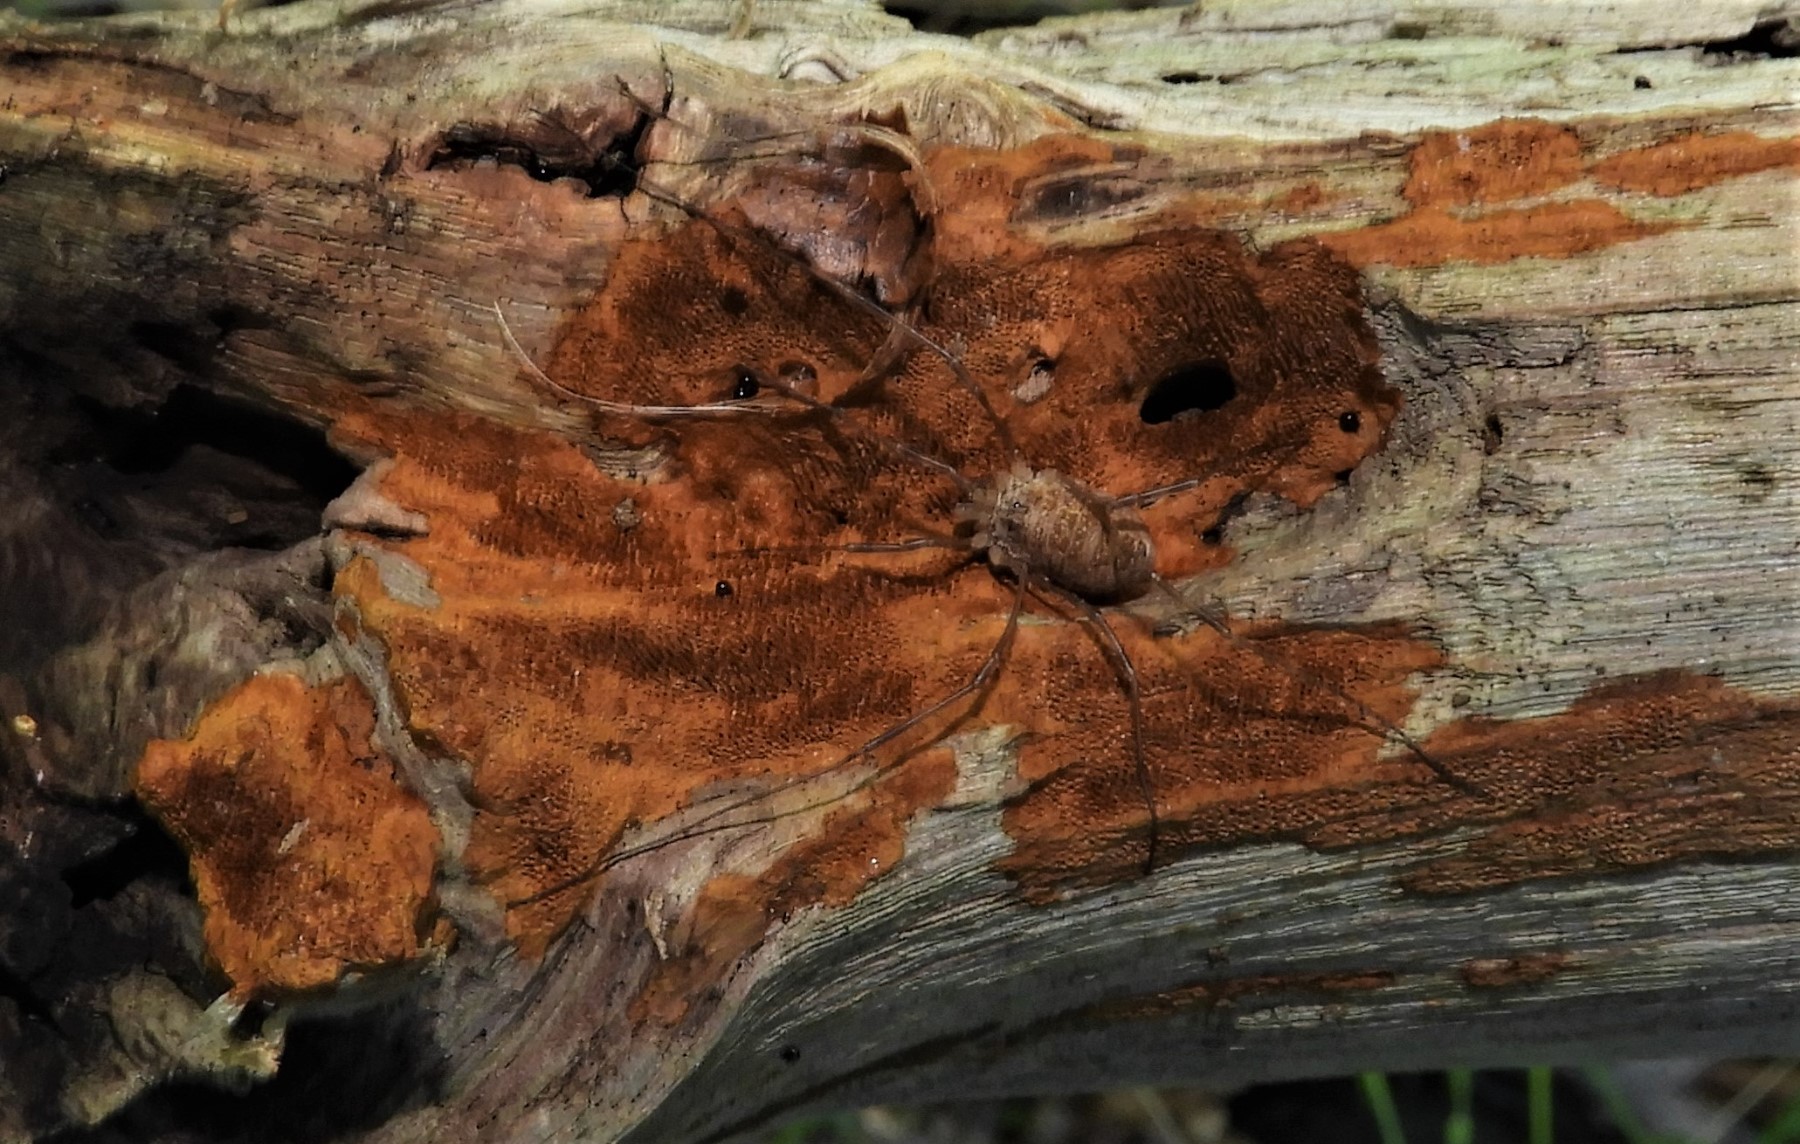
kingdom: Fungi
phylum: Basidiomycota
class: Agaricomycetes
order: Hymenochaetales
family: Hymenochaetaceae
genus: Fuscoporia
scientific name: Fuscoporia ferrea
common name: skorpe-ildporesvamp
